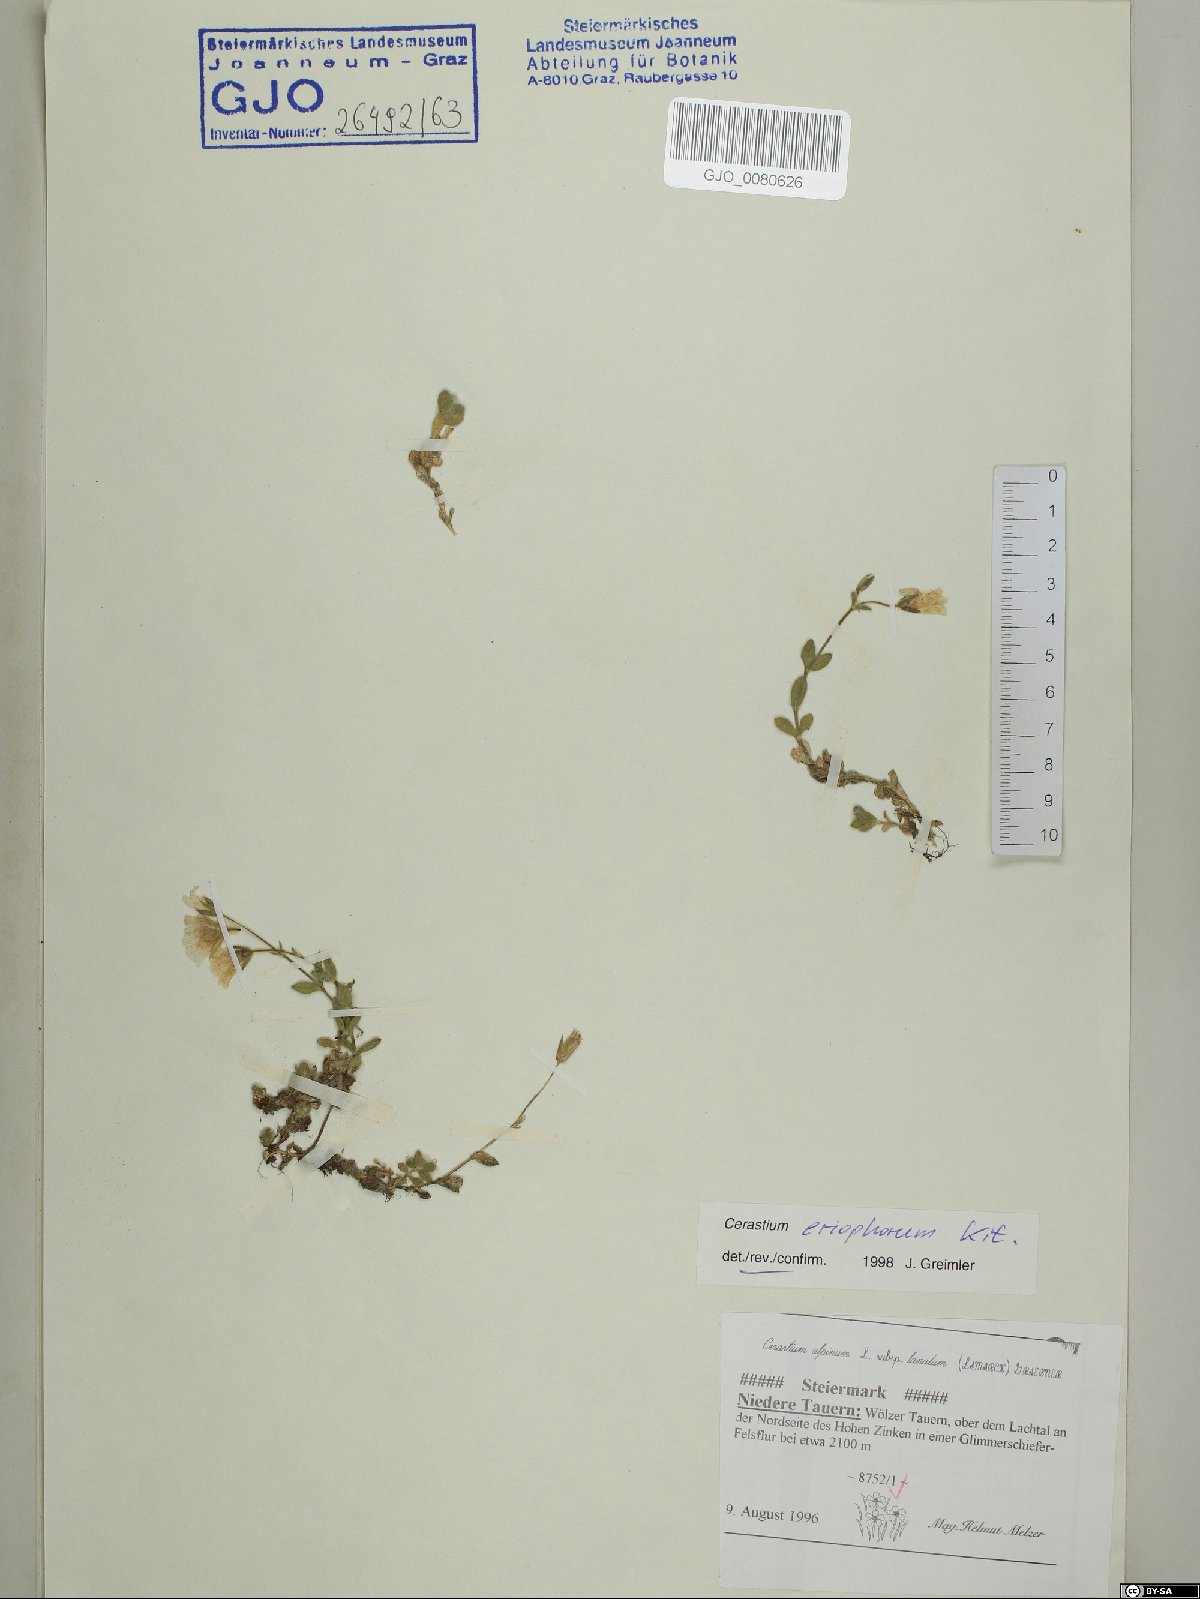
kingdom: Plantae
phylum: Tracheophyta
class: Magnoliopsida
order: Caryophyllales
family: Caryophyllaceae
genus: Cerastium
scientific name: Cerastium eriophorum
